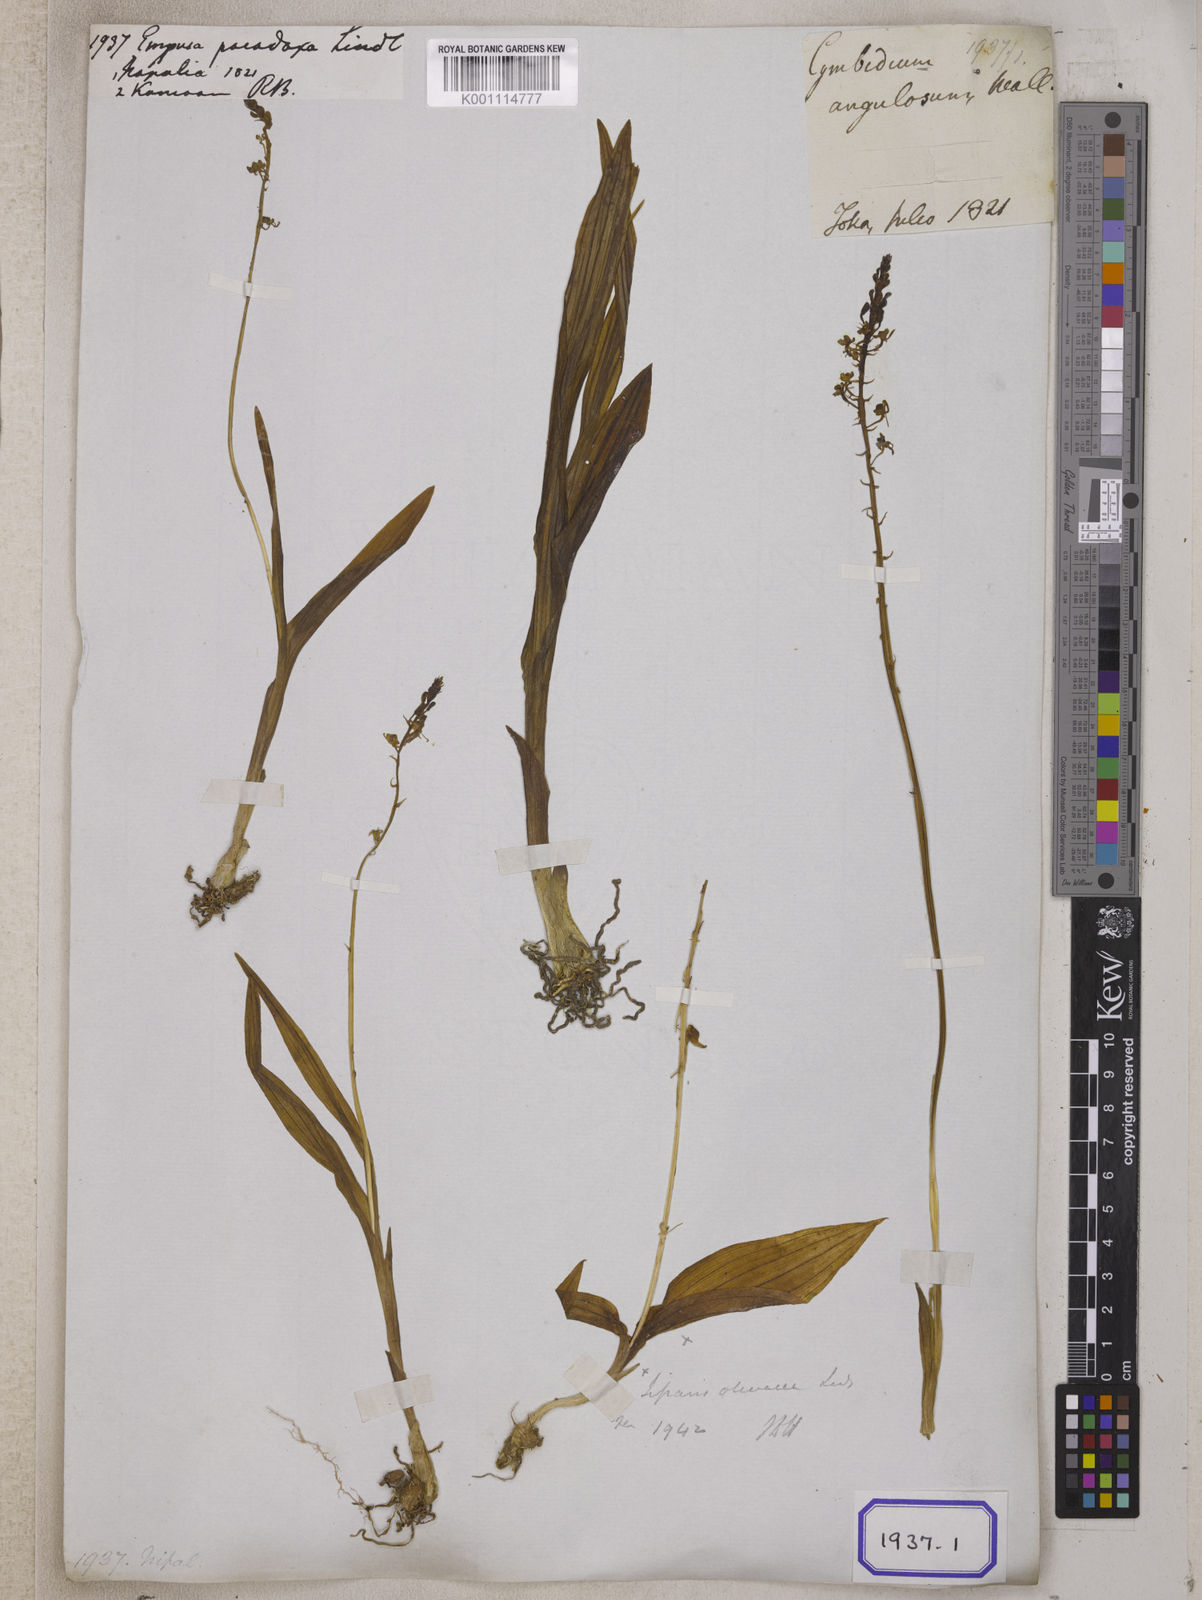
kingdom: Plantae
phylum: Tracheophyta
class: Liliopsida
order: Asparagales
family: Orchidaceae
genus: Liparis
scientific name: Liparis odorata
